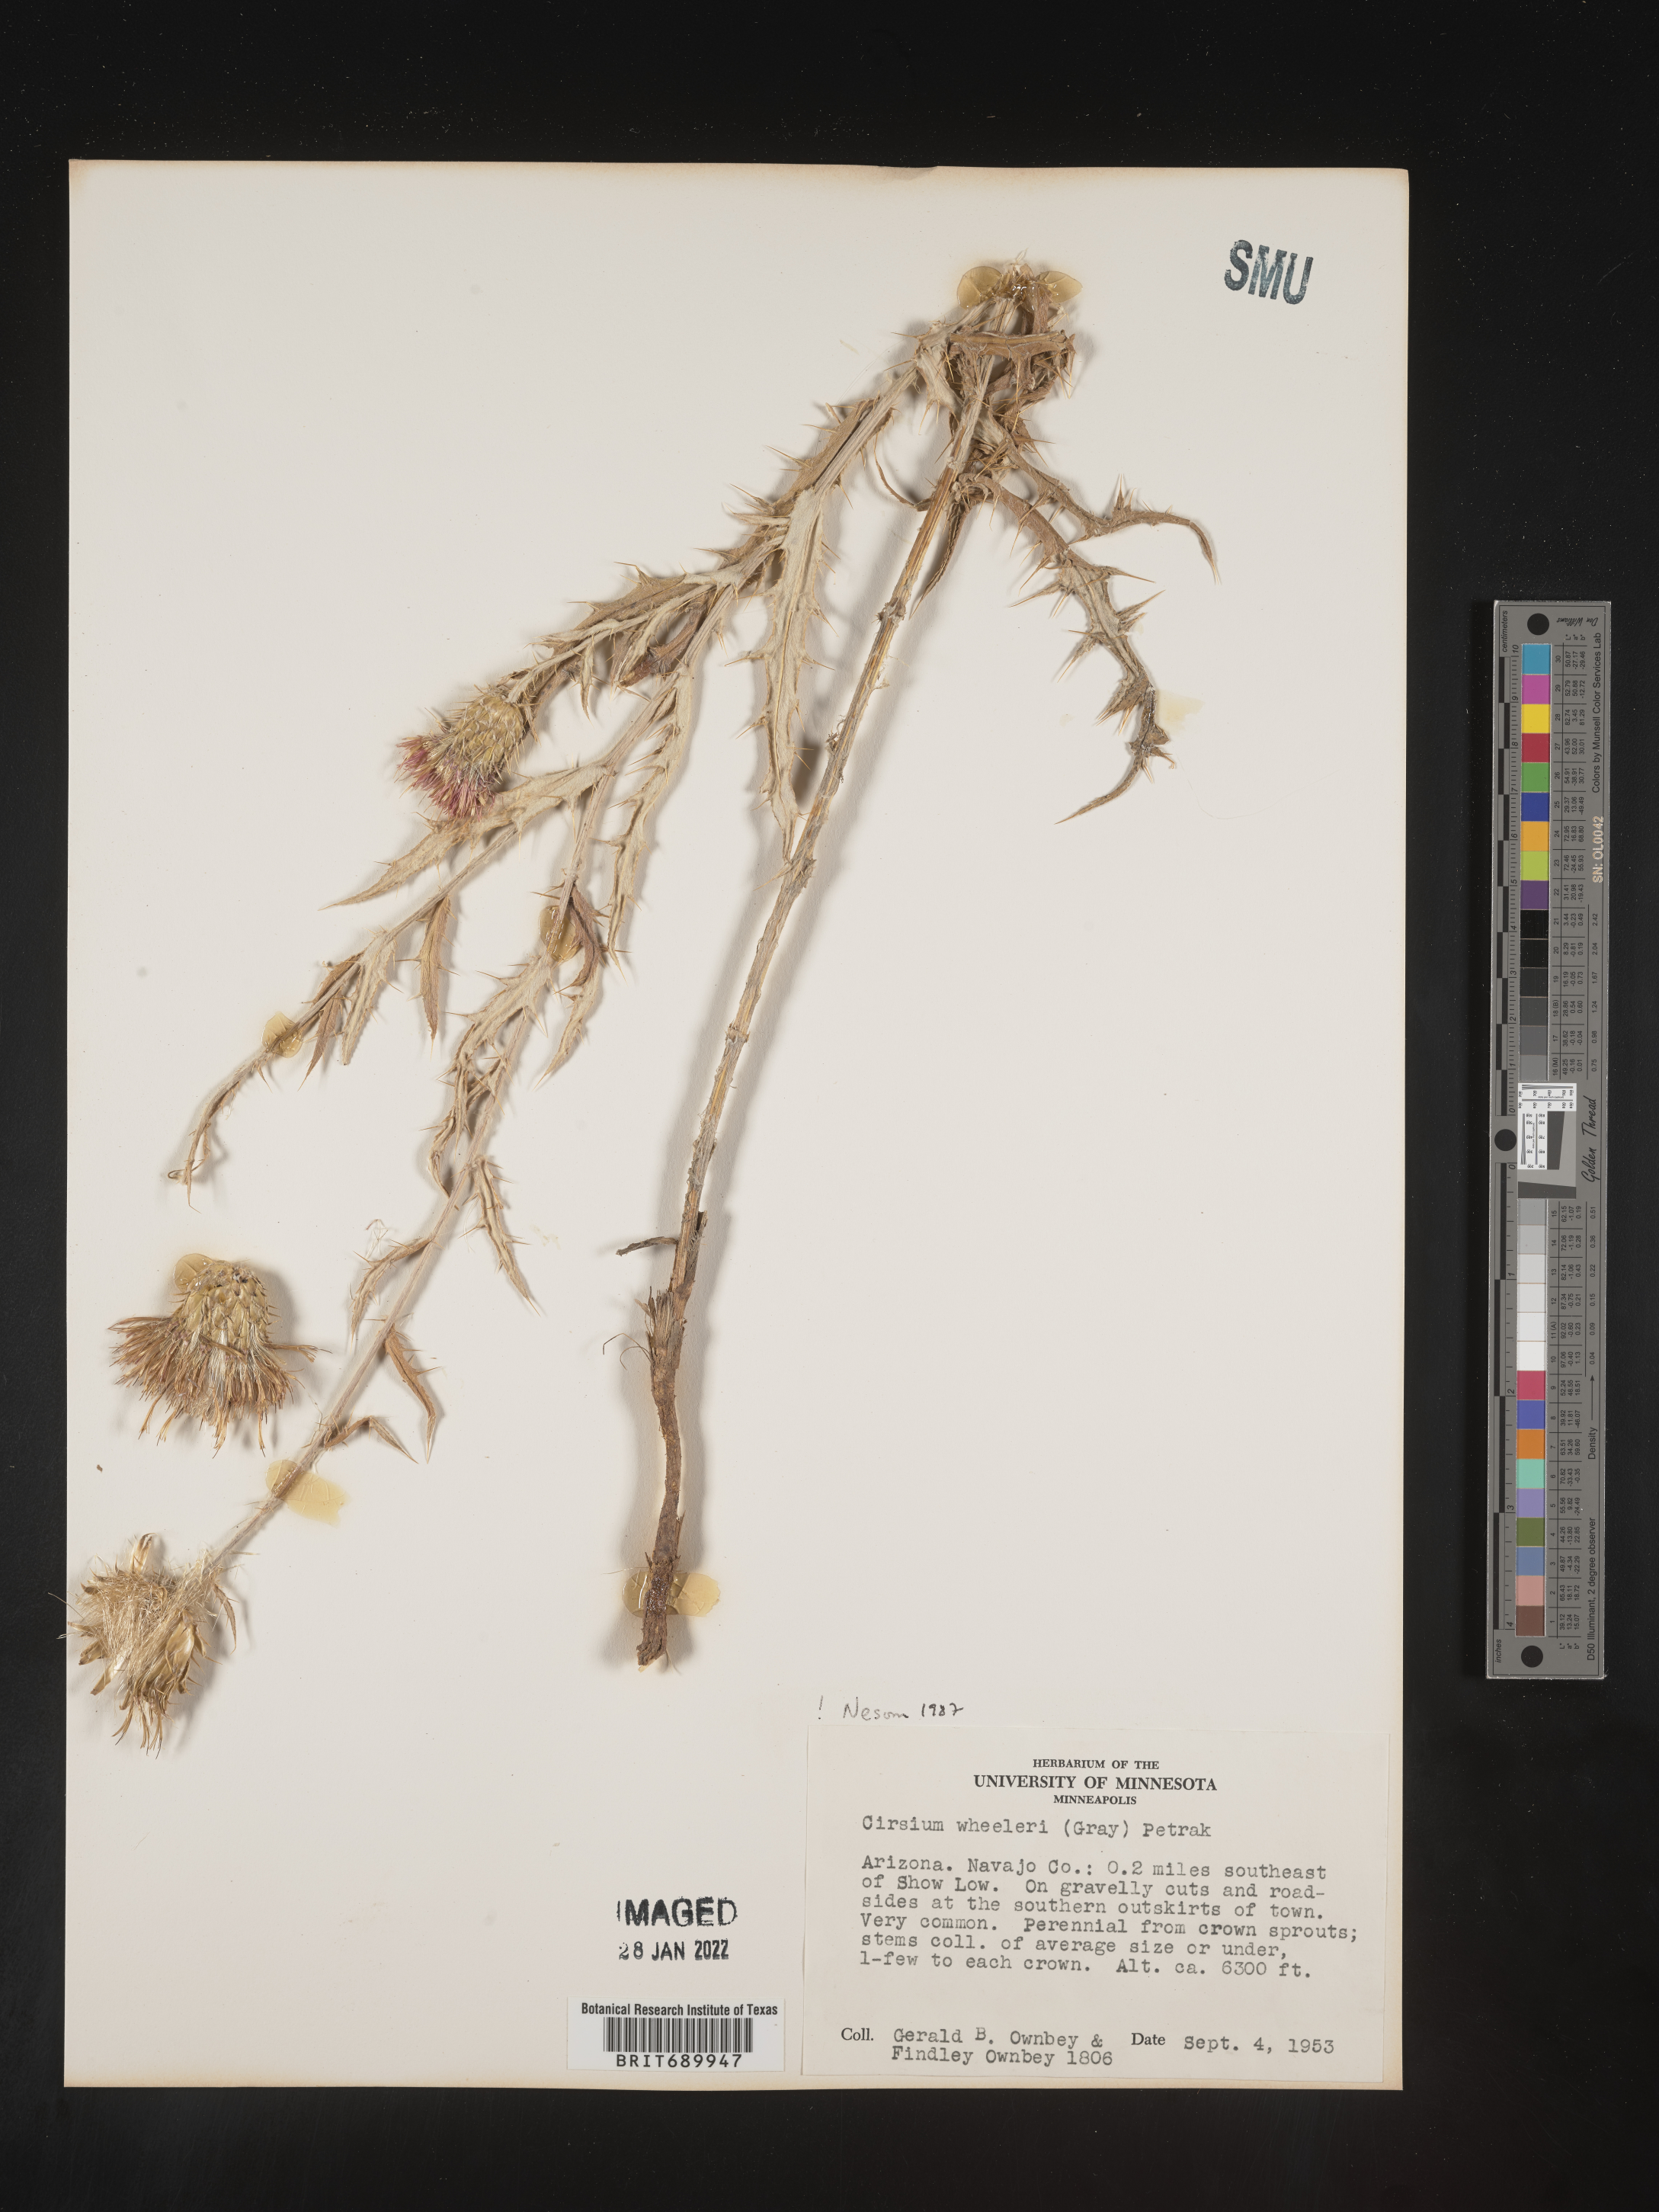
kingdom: Plantae
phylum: Tracheophyta
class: Magnoliopsida
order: Asterales
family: Asteraceae
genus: Cirsium
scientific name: Cirsium wheeleri
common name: Wheeler's thistle
